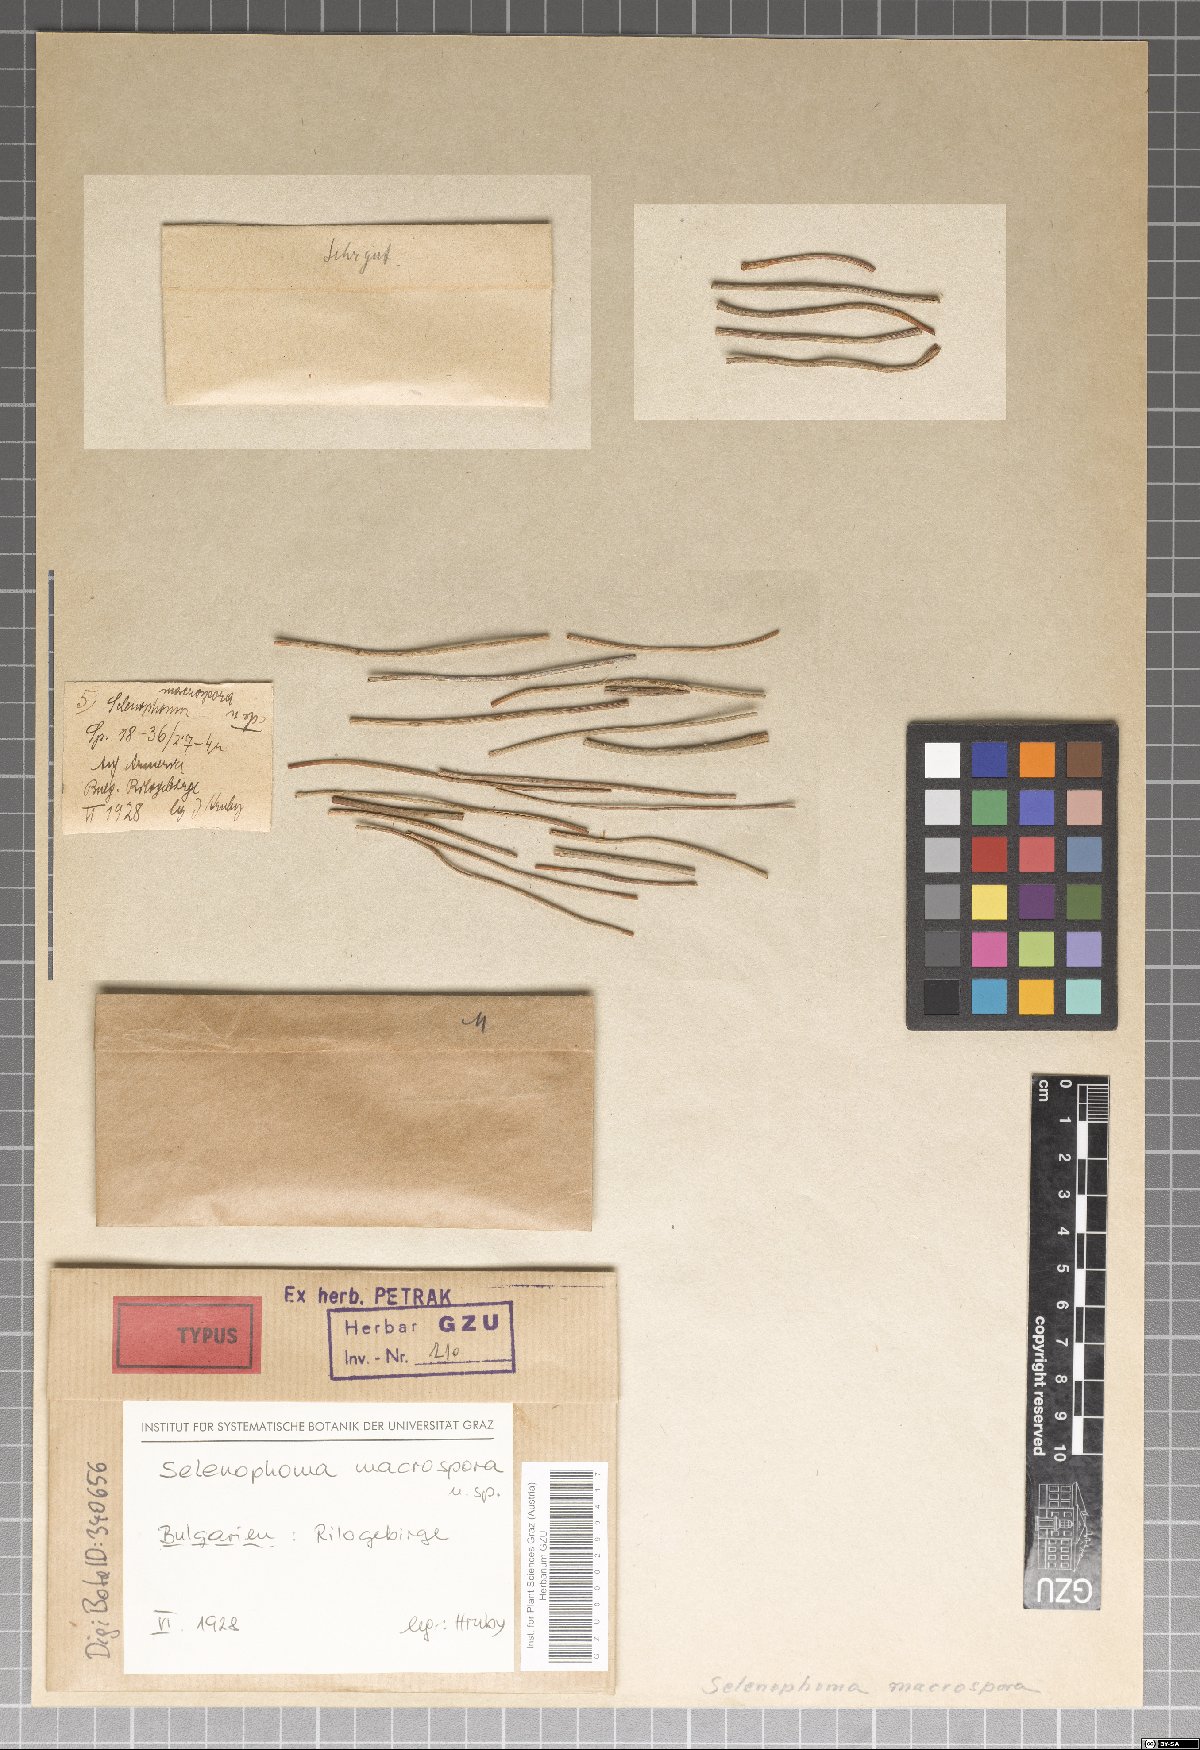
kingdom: Fungi
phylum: Ascomycota
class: Dothideomycetes
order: Dothideales
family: Saccotheciaceae
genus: Selenophoma
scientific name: Selenophoma macrospora
